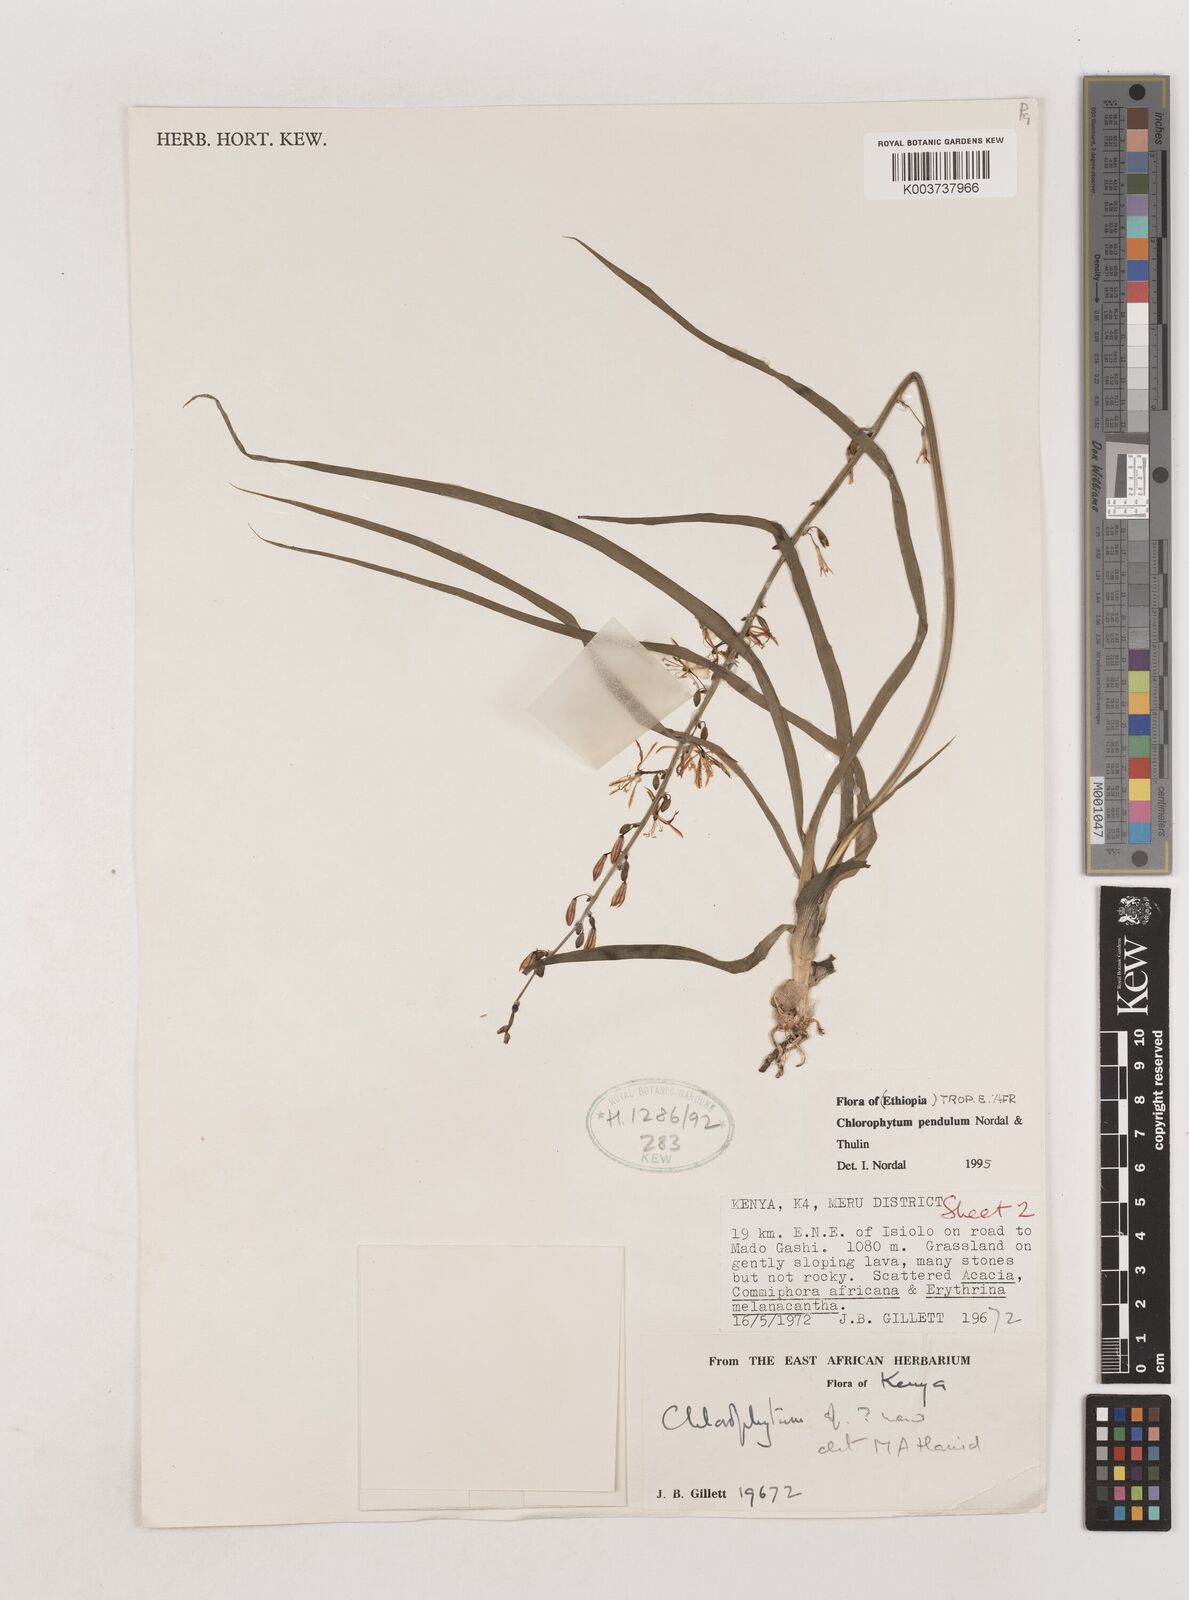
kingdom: Plantae
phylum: Tracheophyta
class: Liliopsida
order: Asparagales
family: Asparagaceae
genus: Chlorophytum
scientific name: Chlorophytum pendulum
